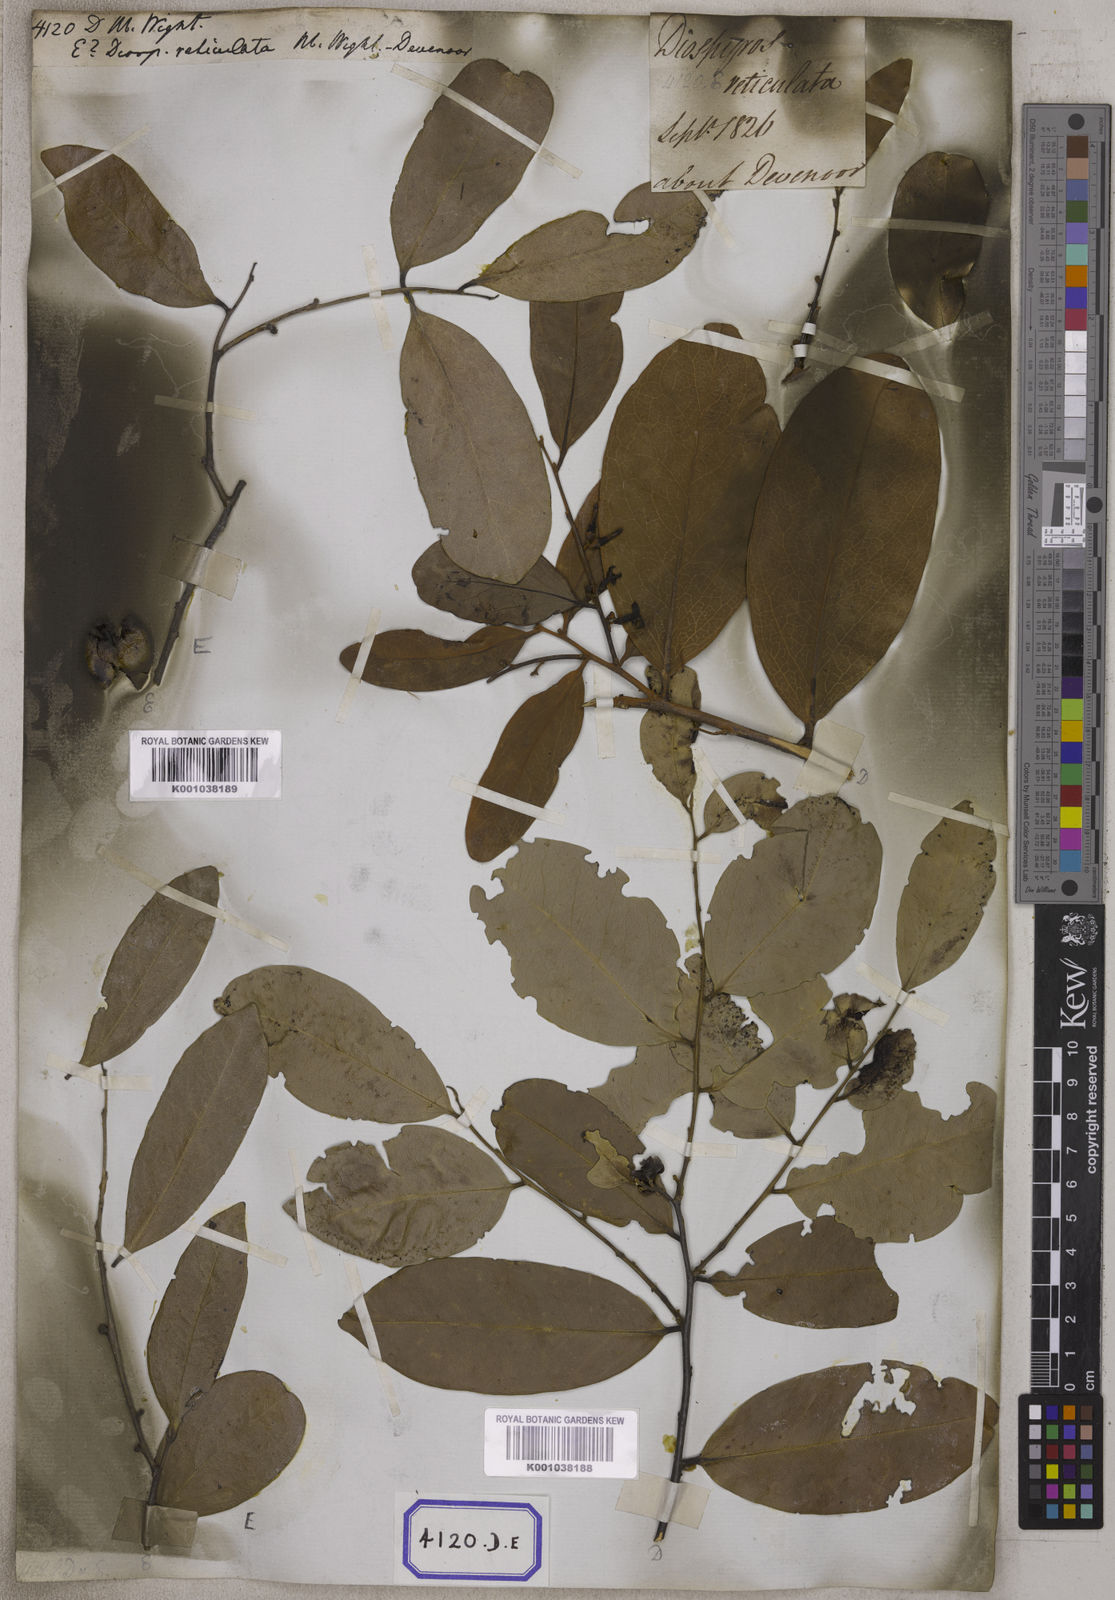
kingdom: Plantae
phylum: Tracheophyta
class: Magnoliopsida
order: Ericales
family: Ebenaceae
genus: Diospyros
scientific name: Diospyros
